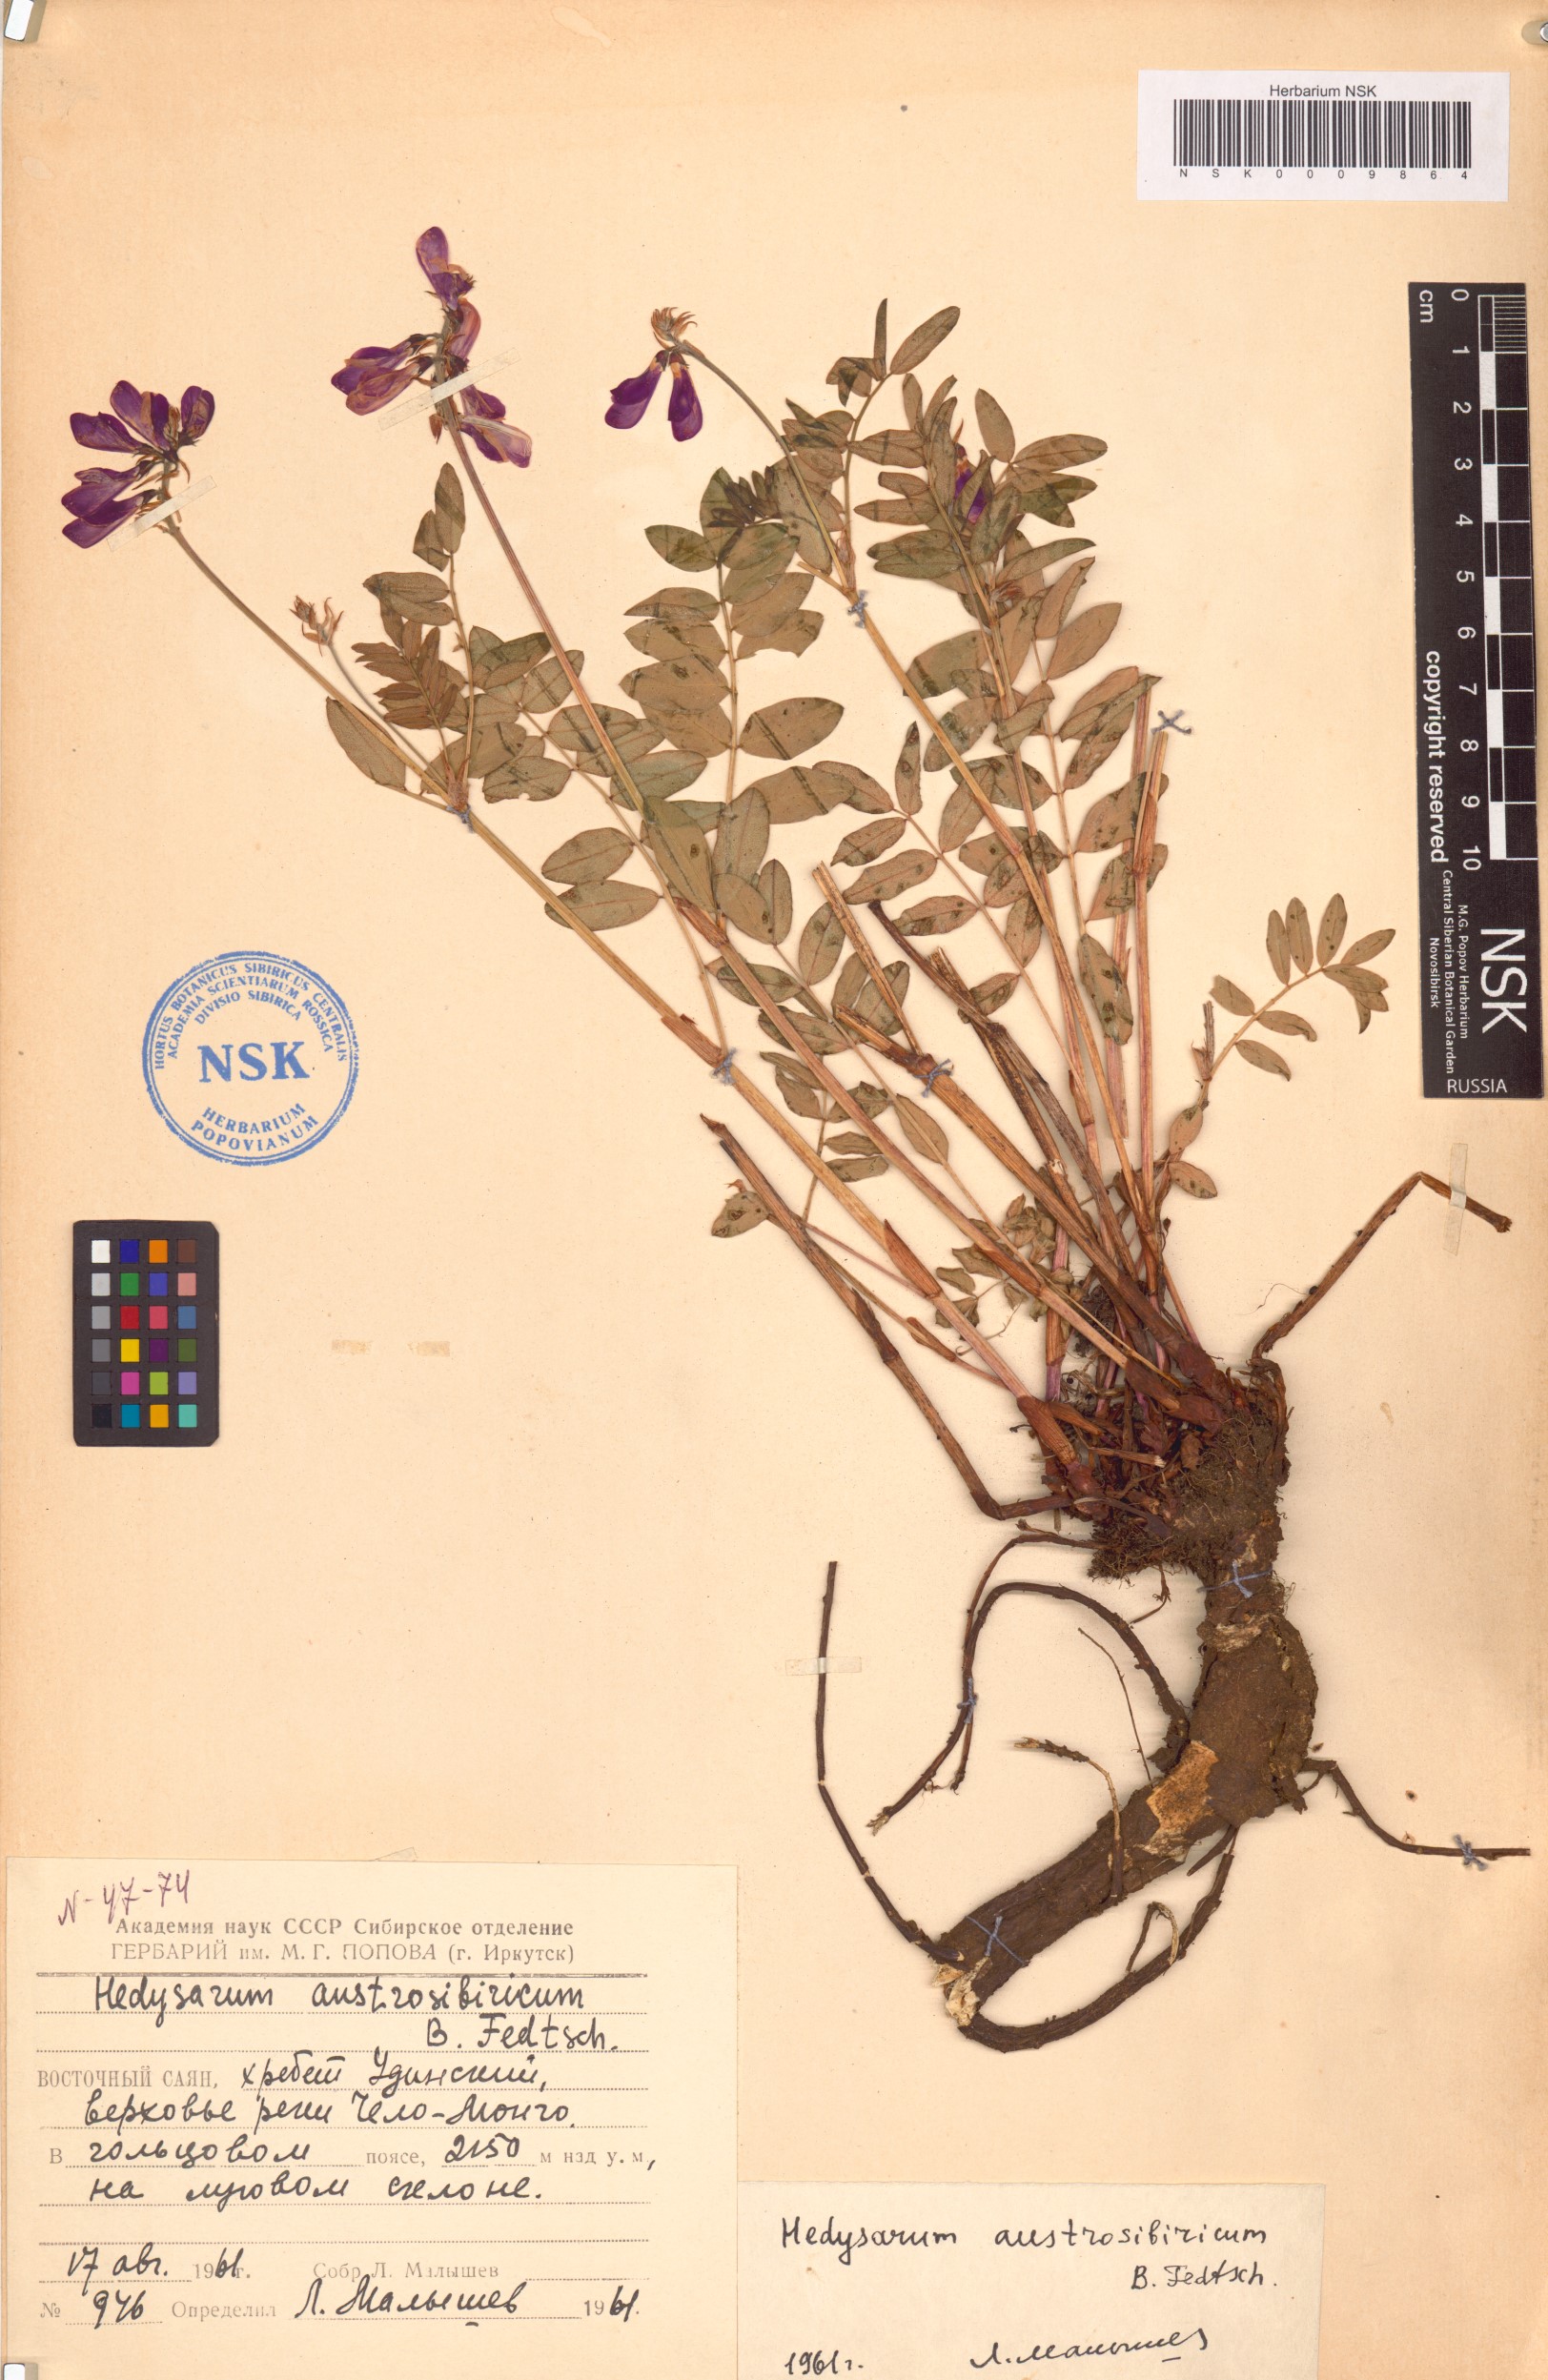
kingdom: Plantae
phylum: Tracheophyta
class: Magnoliopsida
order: Fabales
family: Fabaceae
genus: Hedysarum
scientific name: Hedysarum neglectum
